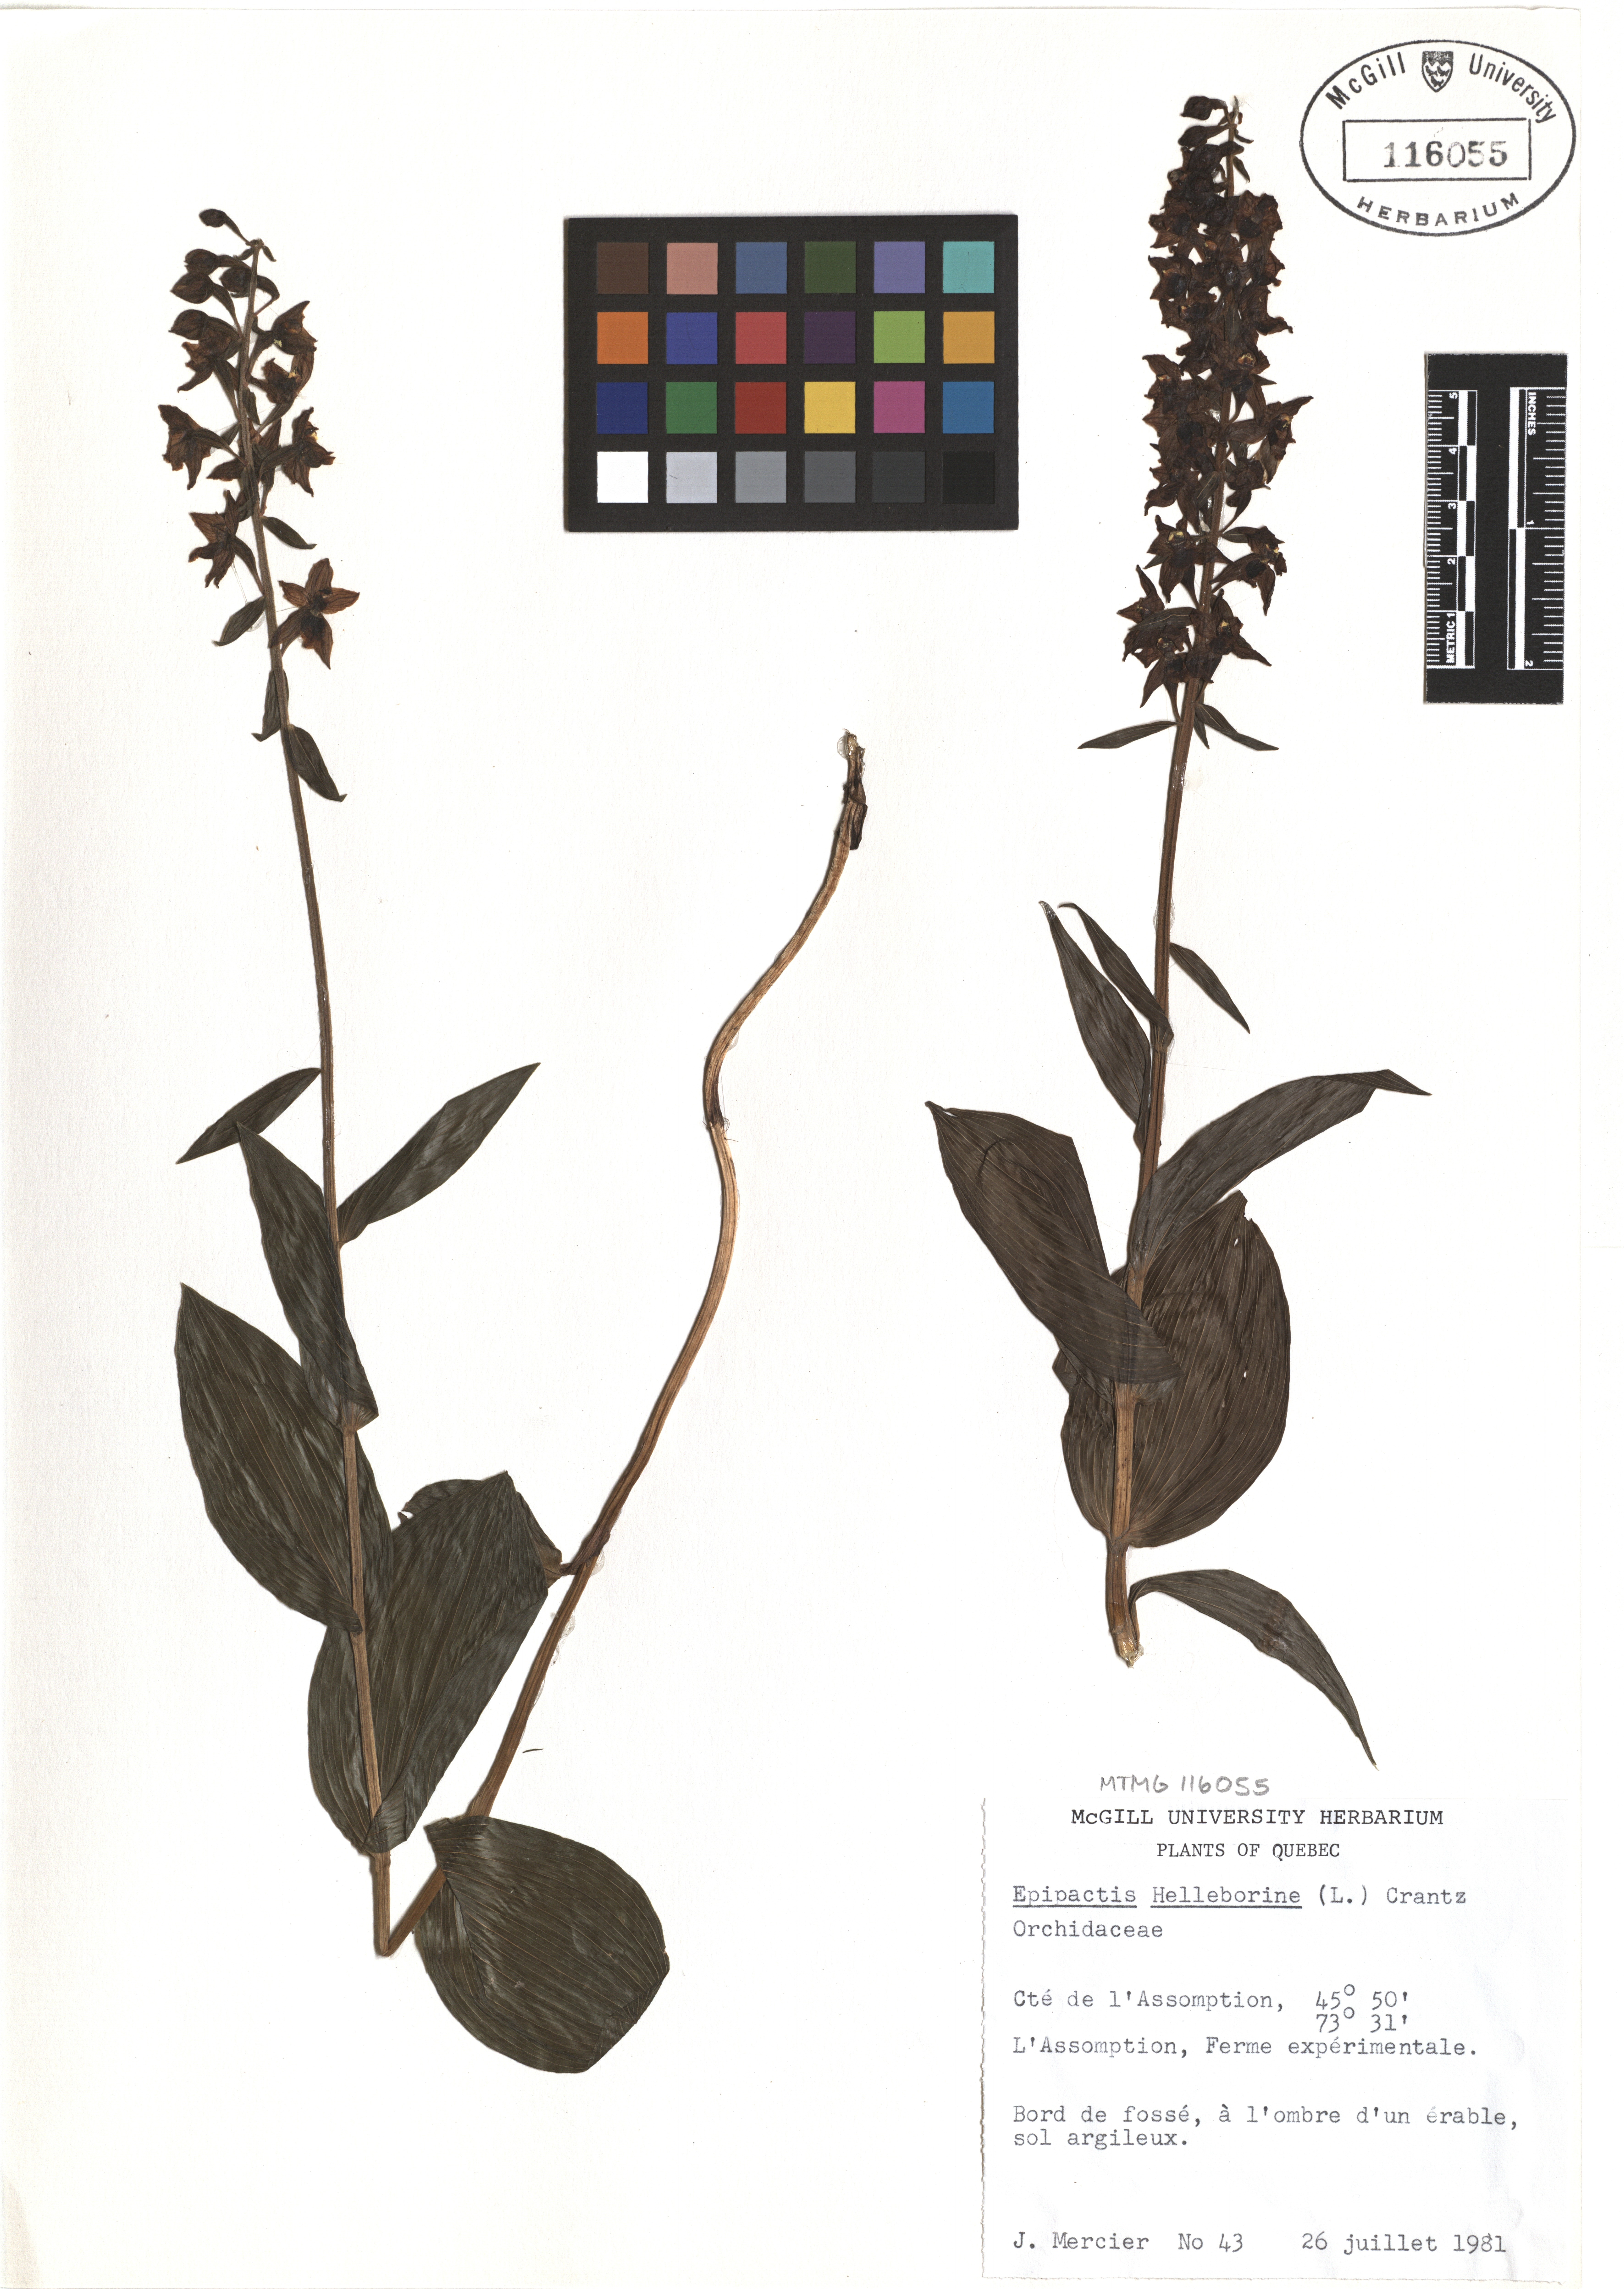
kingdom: Plantae
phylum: Tracheophyta
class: Liliopsida
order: Asparagales
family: Orchidaceae
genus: Epipactis
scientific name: Epipactis helleborine
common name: Broad-leaved helleborine
